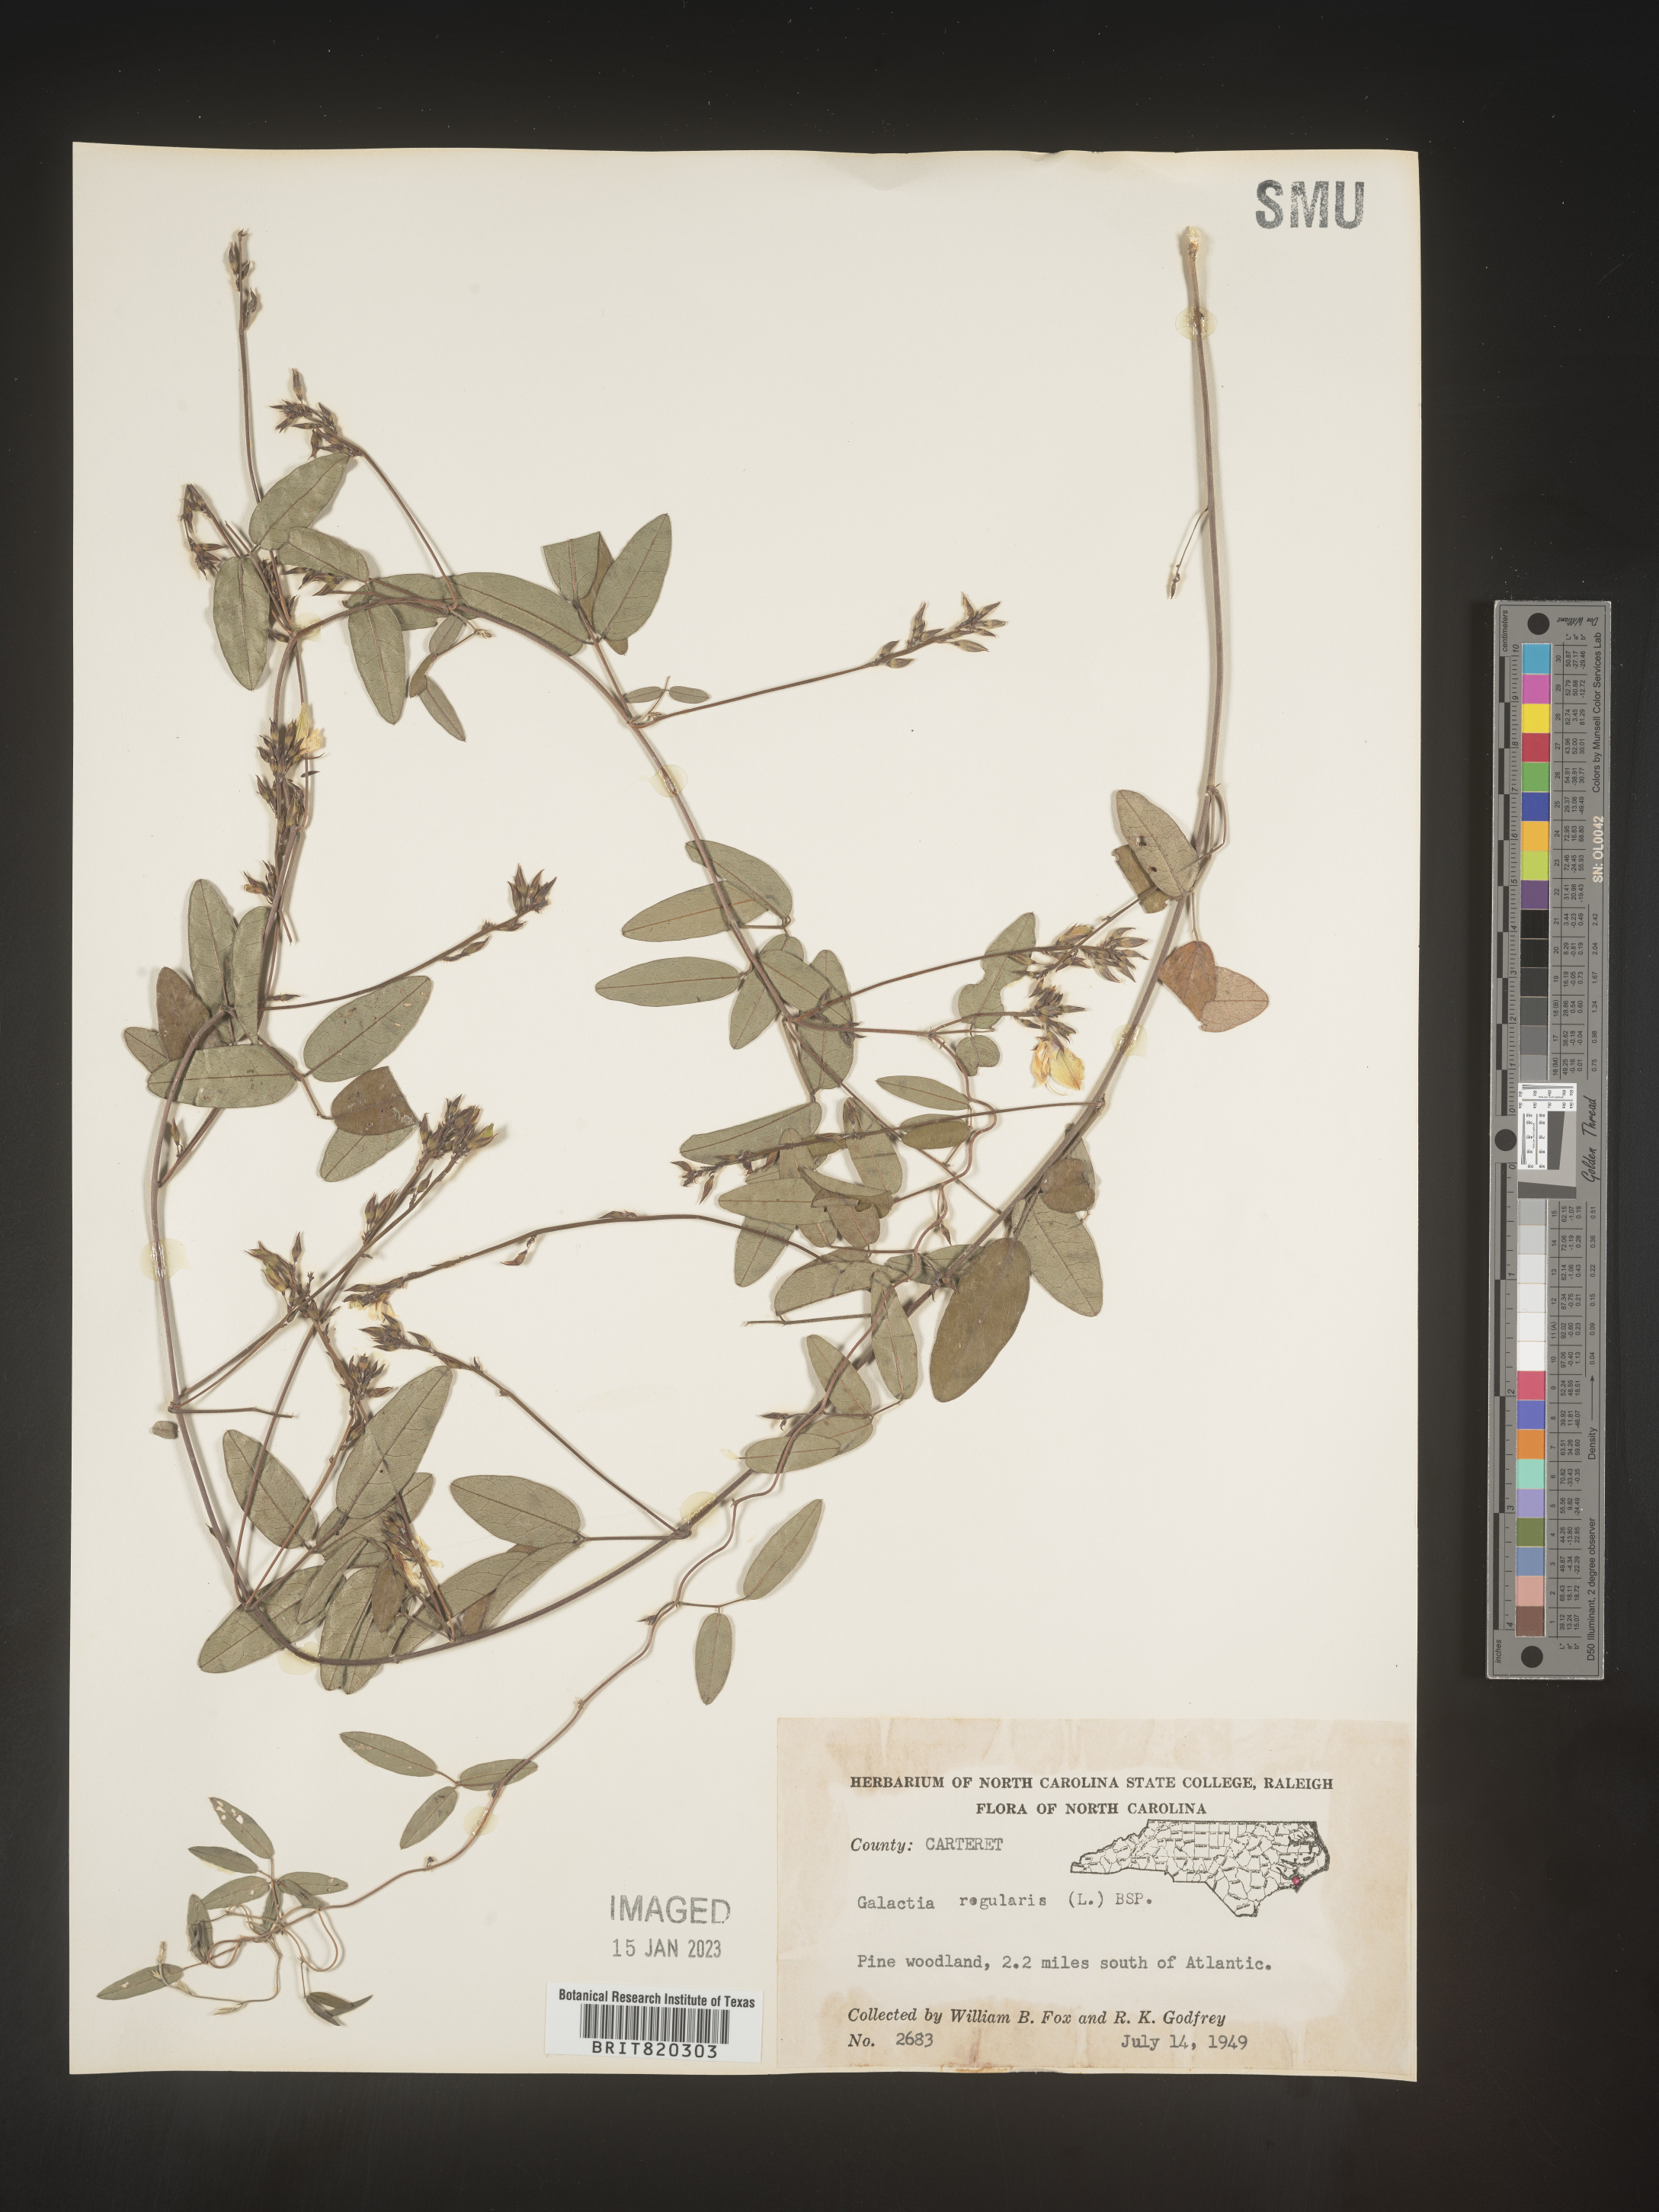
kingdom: Plantae
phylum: Tracheophyta
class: Magnoliopsida
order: Fabales
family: Fabaceae
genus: Galactia
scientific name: Galactia regularis
